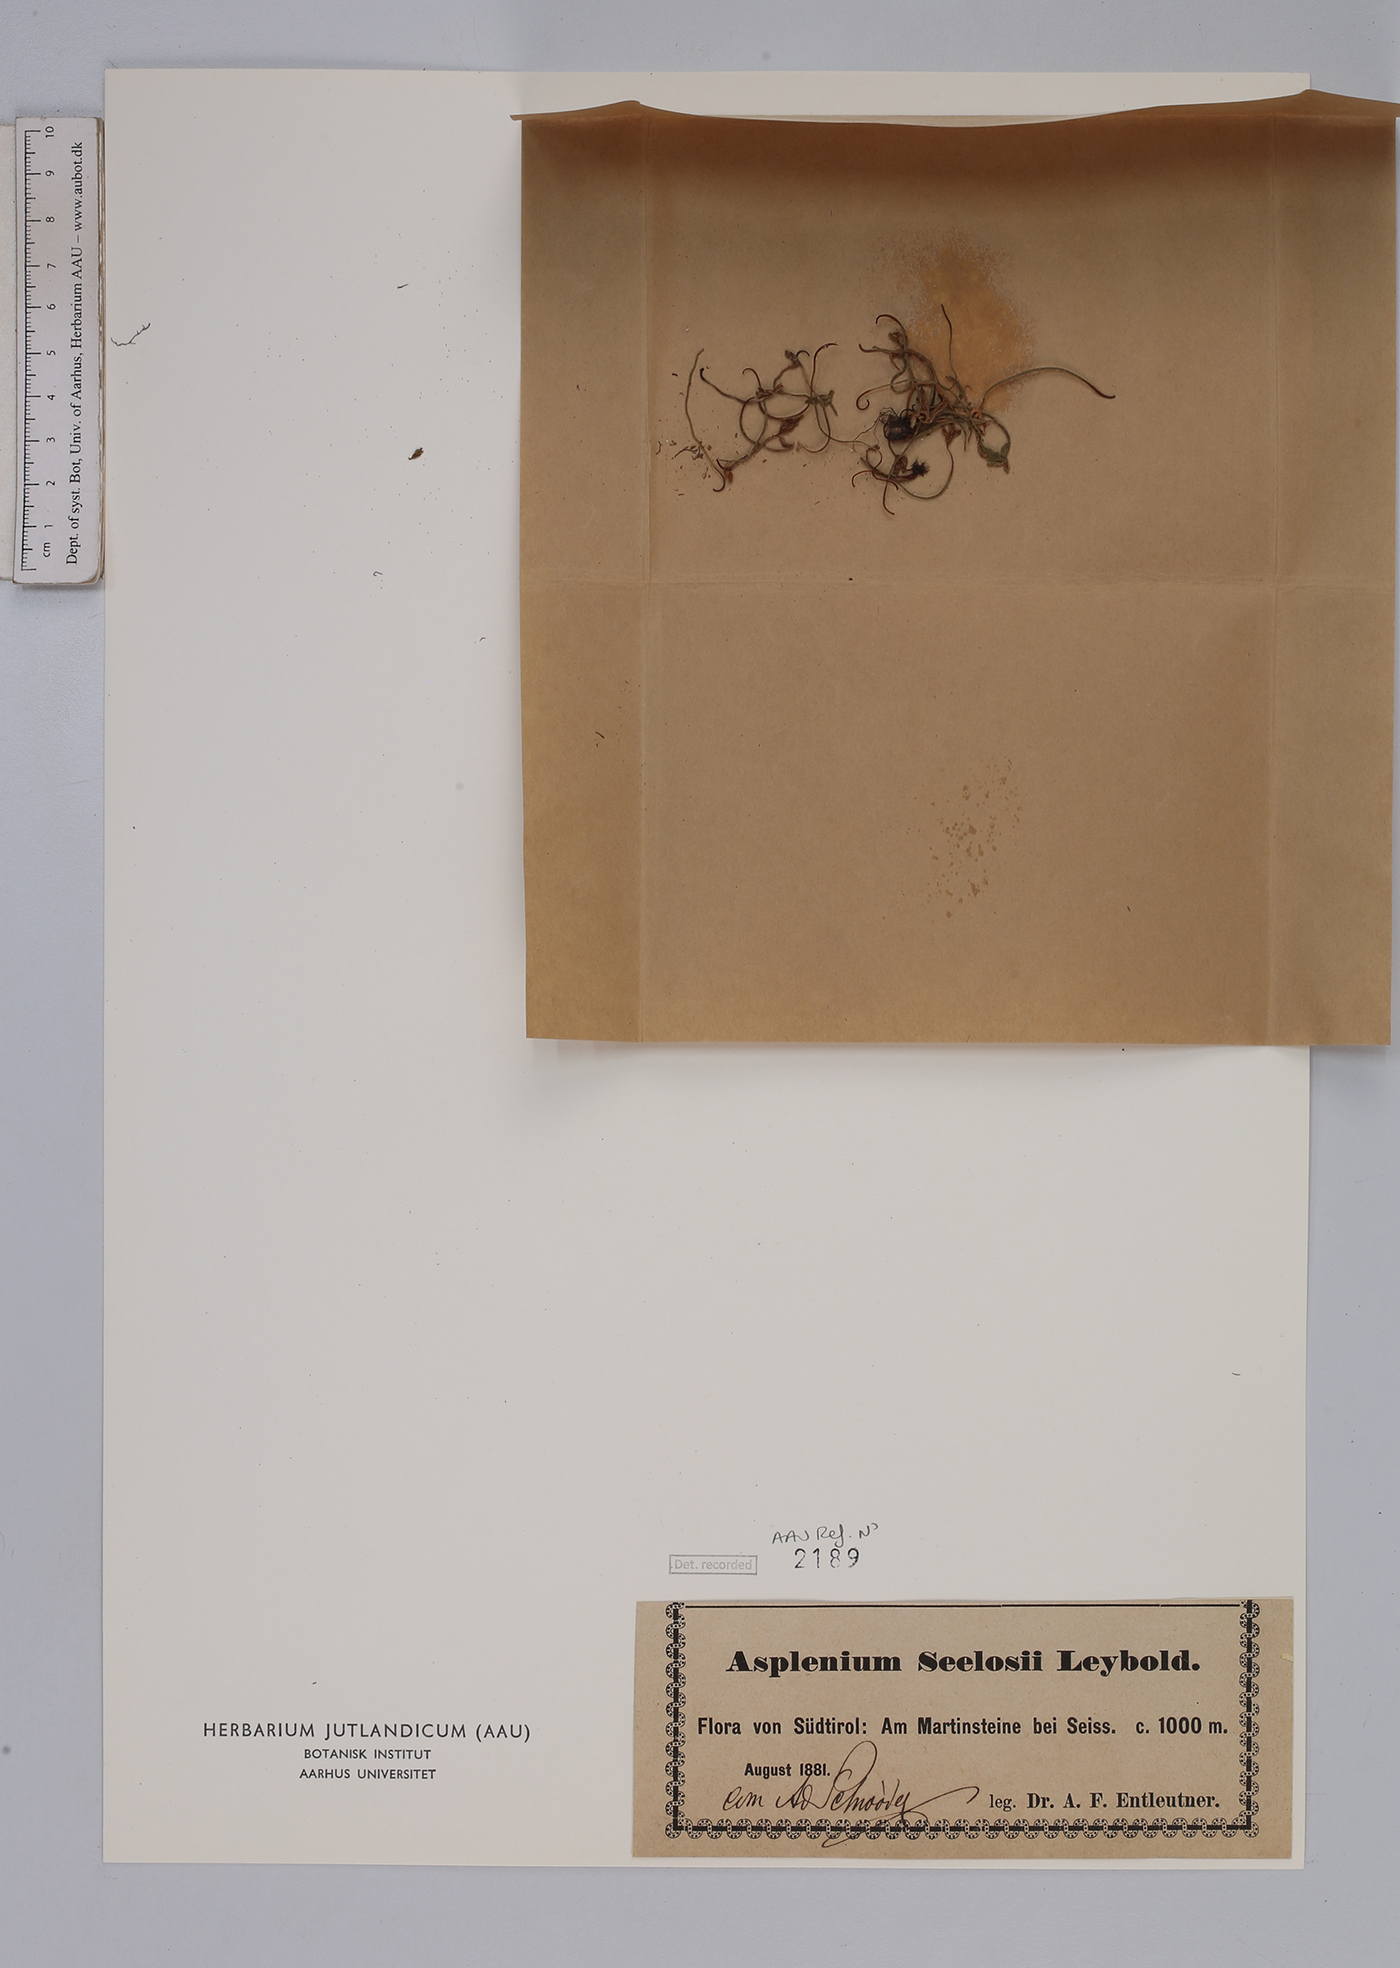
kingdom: Plantae
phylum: Tracheophyta
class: Polypodiopsida
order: Polypodiales
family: Aspleniaceae
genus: Asplenium
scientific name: Asplenium seelosii
